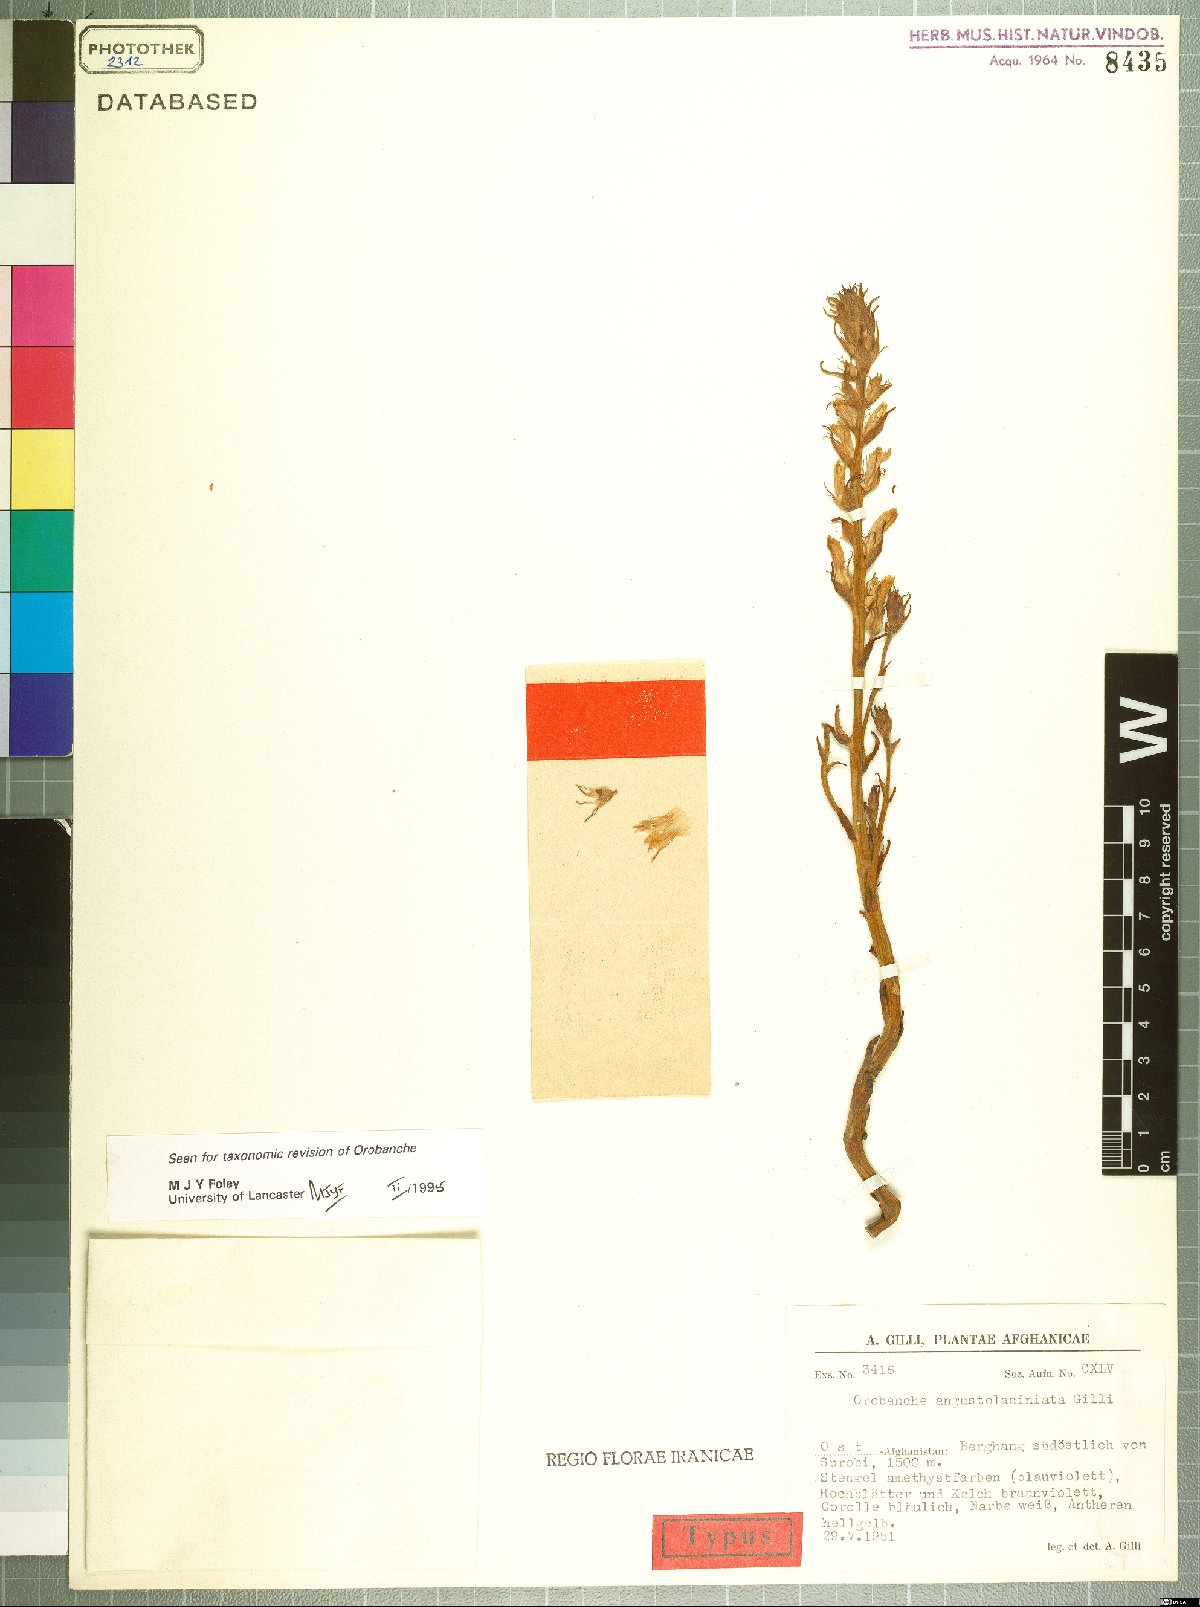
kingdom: Plantae
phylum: Tracheophyta
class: Magnoliopsida
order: Lamiales
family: Orobanchaceae
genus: Phelipanche
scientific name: Phelipanche angustelaciniata
